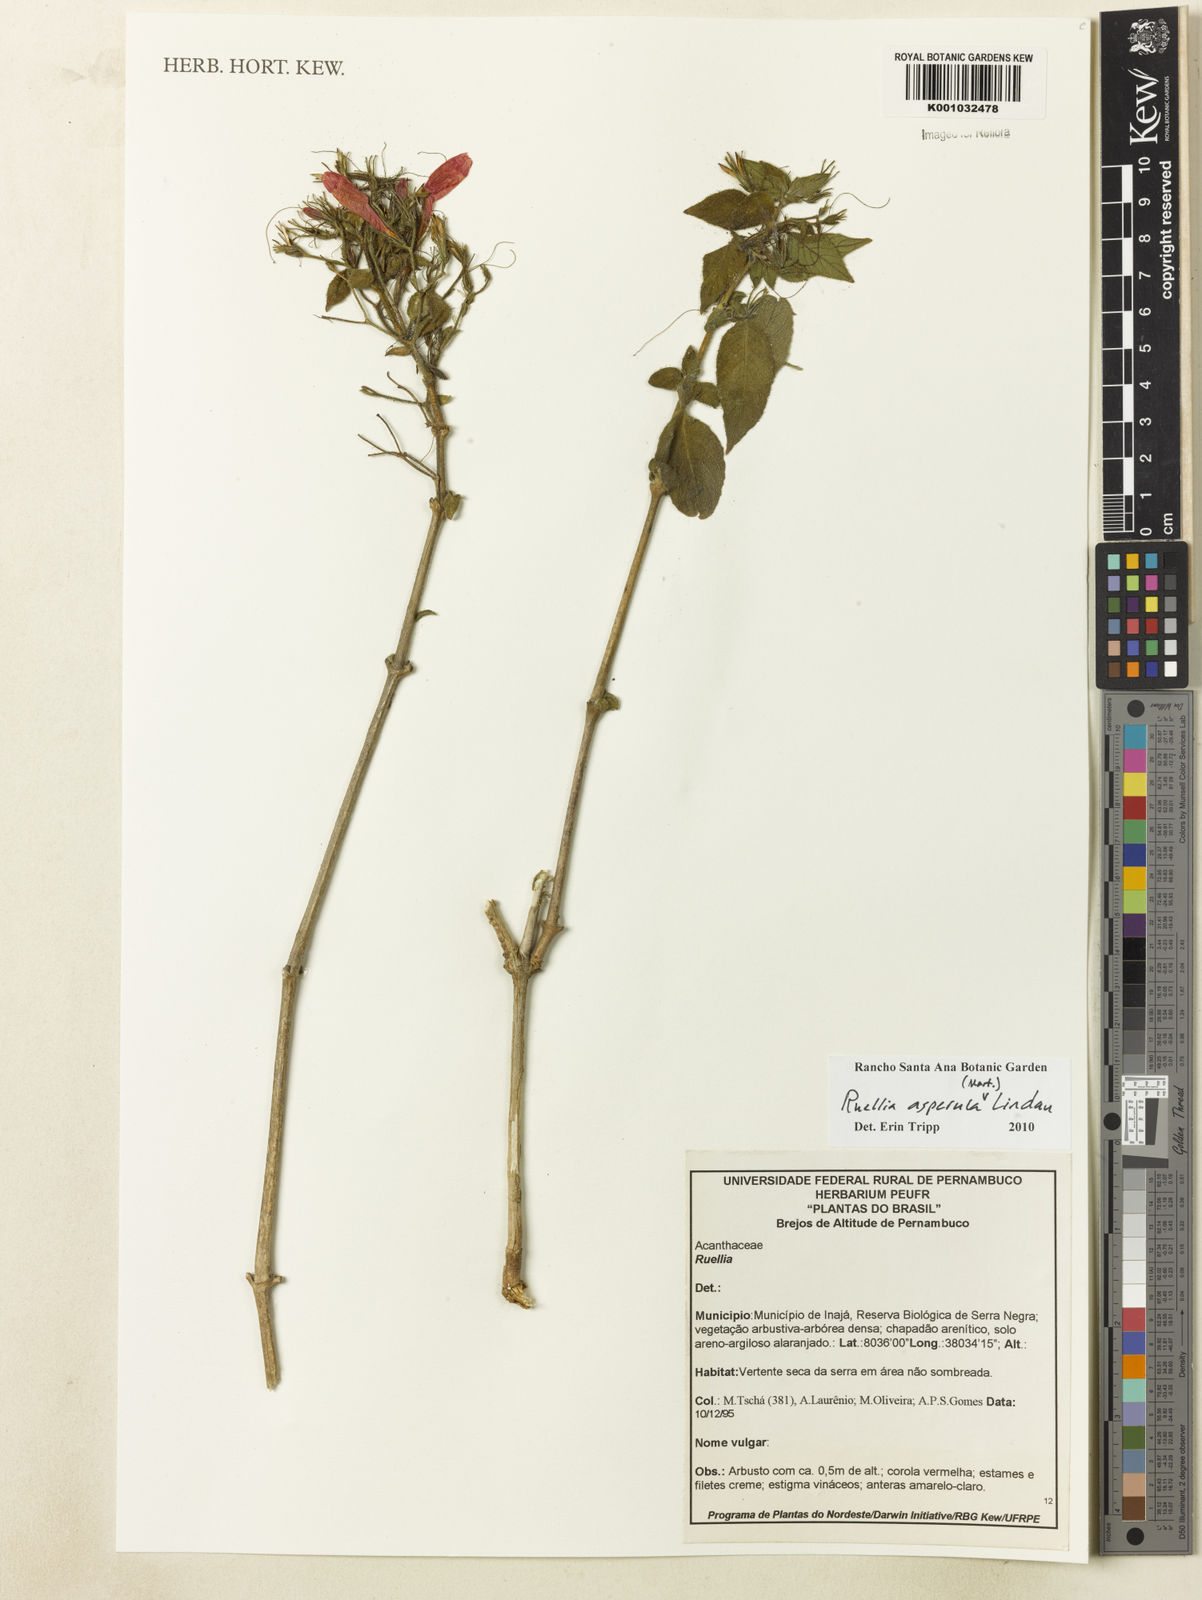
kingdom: Plantae
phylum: Tracheophyta
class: Magnoliopsida
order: Lamiales
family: Acanthaceae
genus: Ruellia
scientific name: Ruellia asperula
